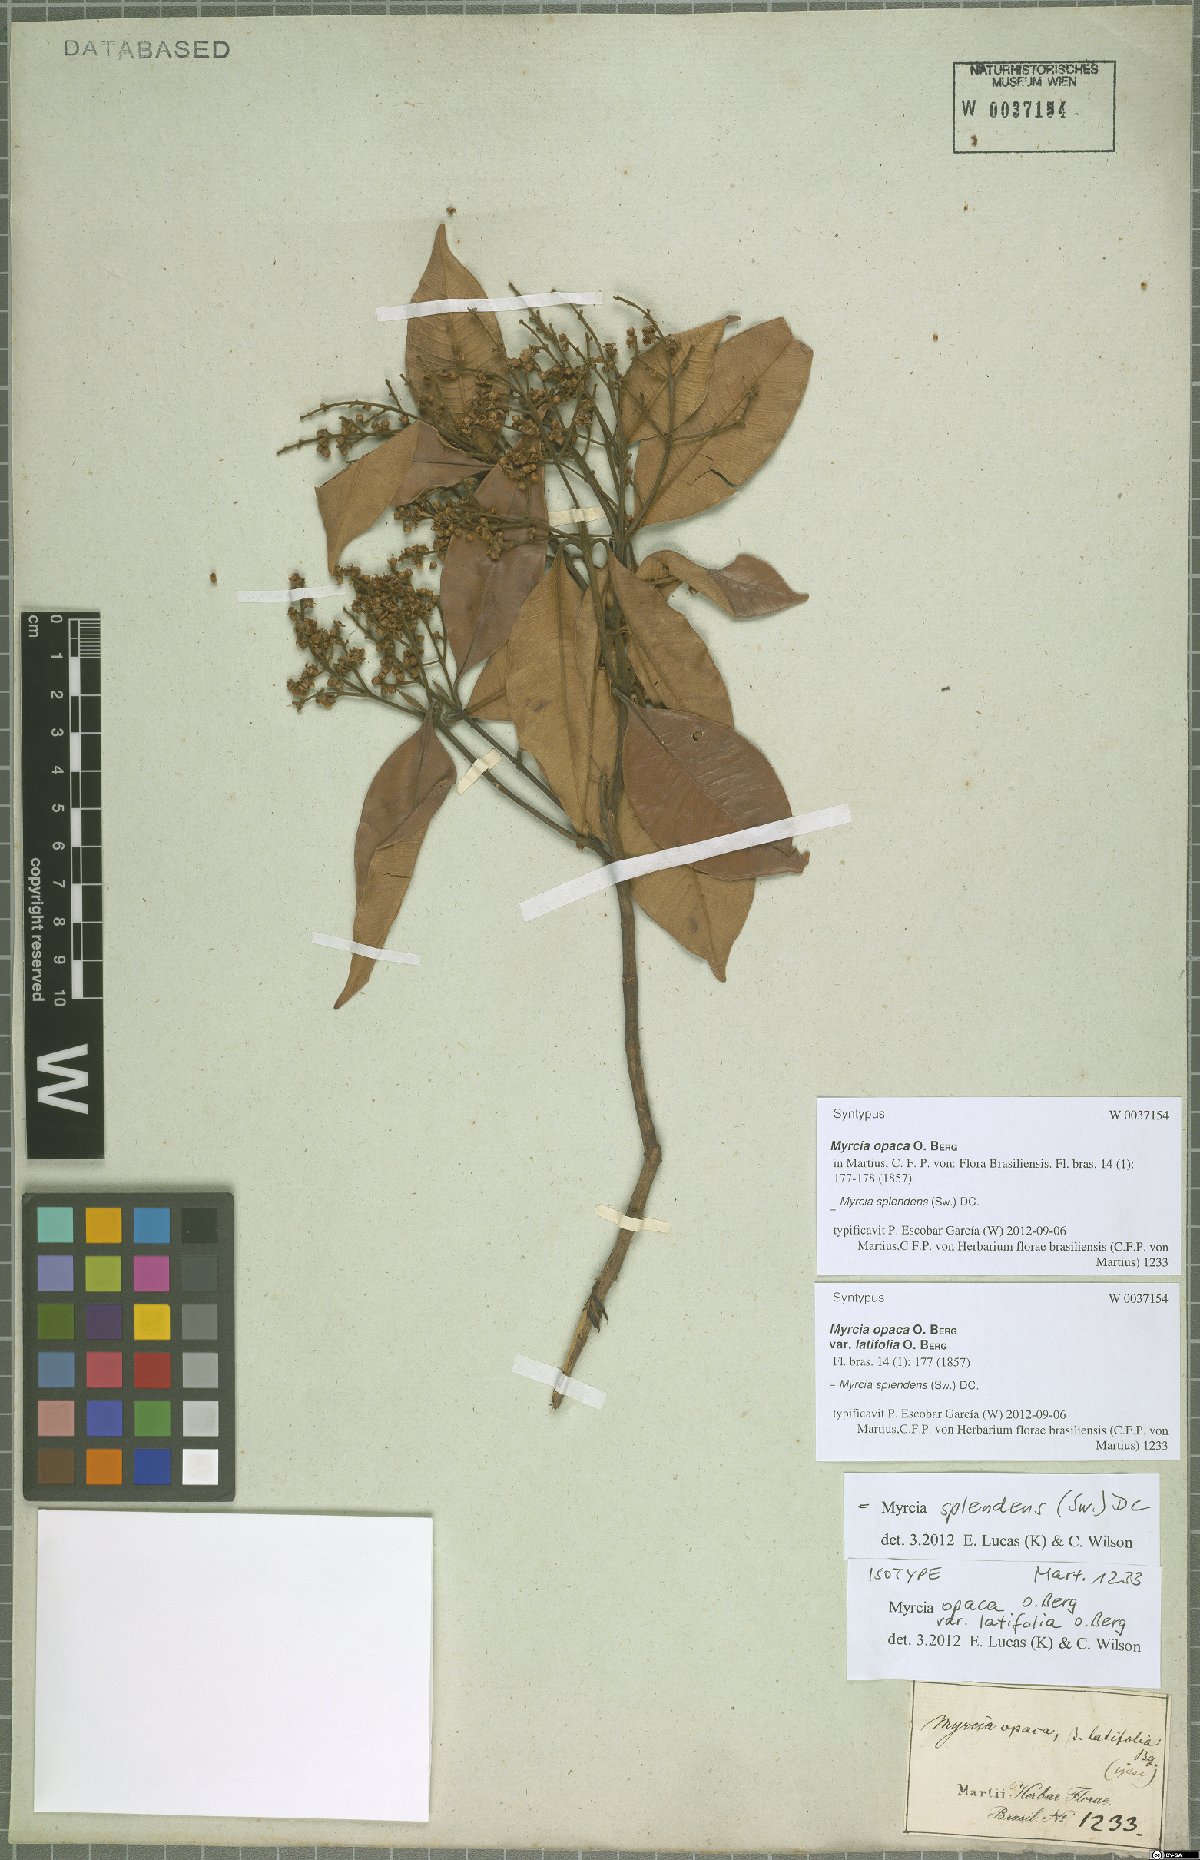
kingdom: Plantae
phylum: Tracheophyta
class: Magnoliopsida
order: Myrtales
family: Myrtaceae
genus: Myrcia
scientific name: Myrcia splendens
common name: Surinam cherry
